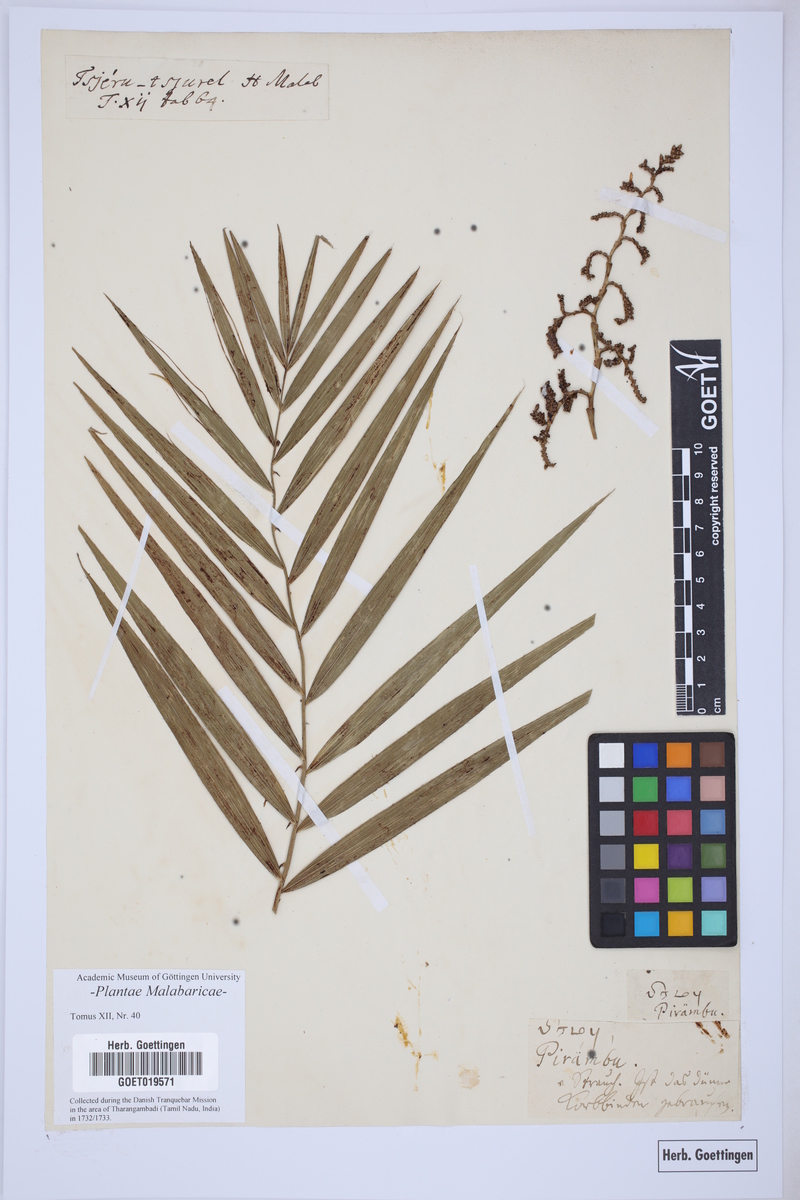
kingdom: Plantae
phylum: Tracheophyta
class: Liliopsida
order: Arecales
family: Arecaceae
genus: Calamus
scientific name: Calamus rheedei
